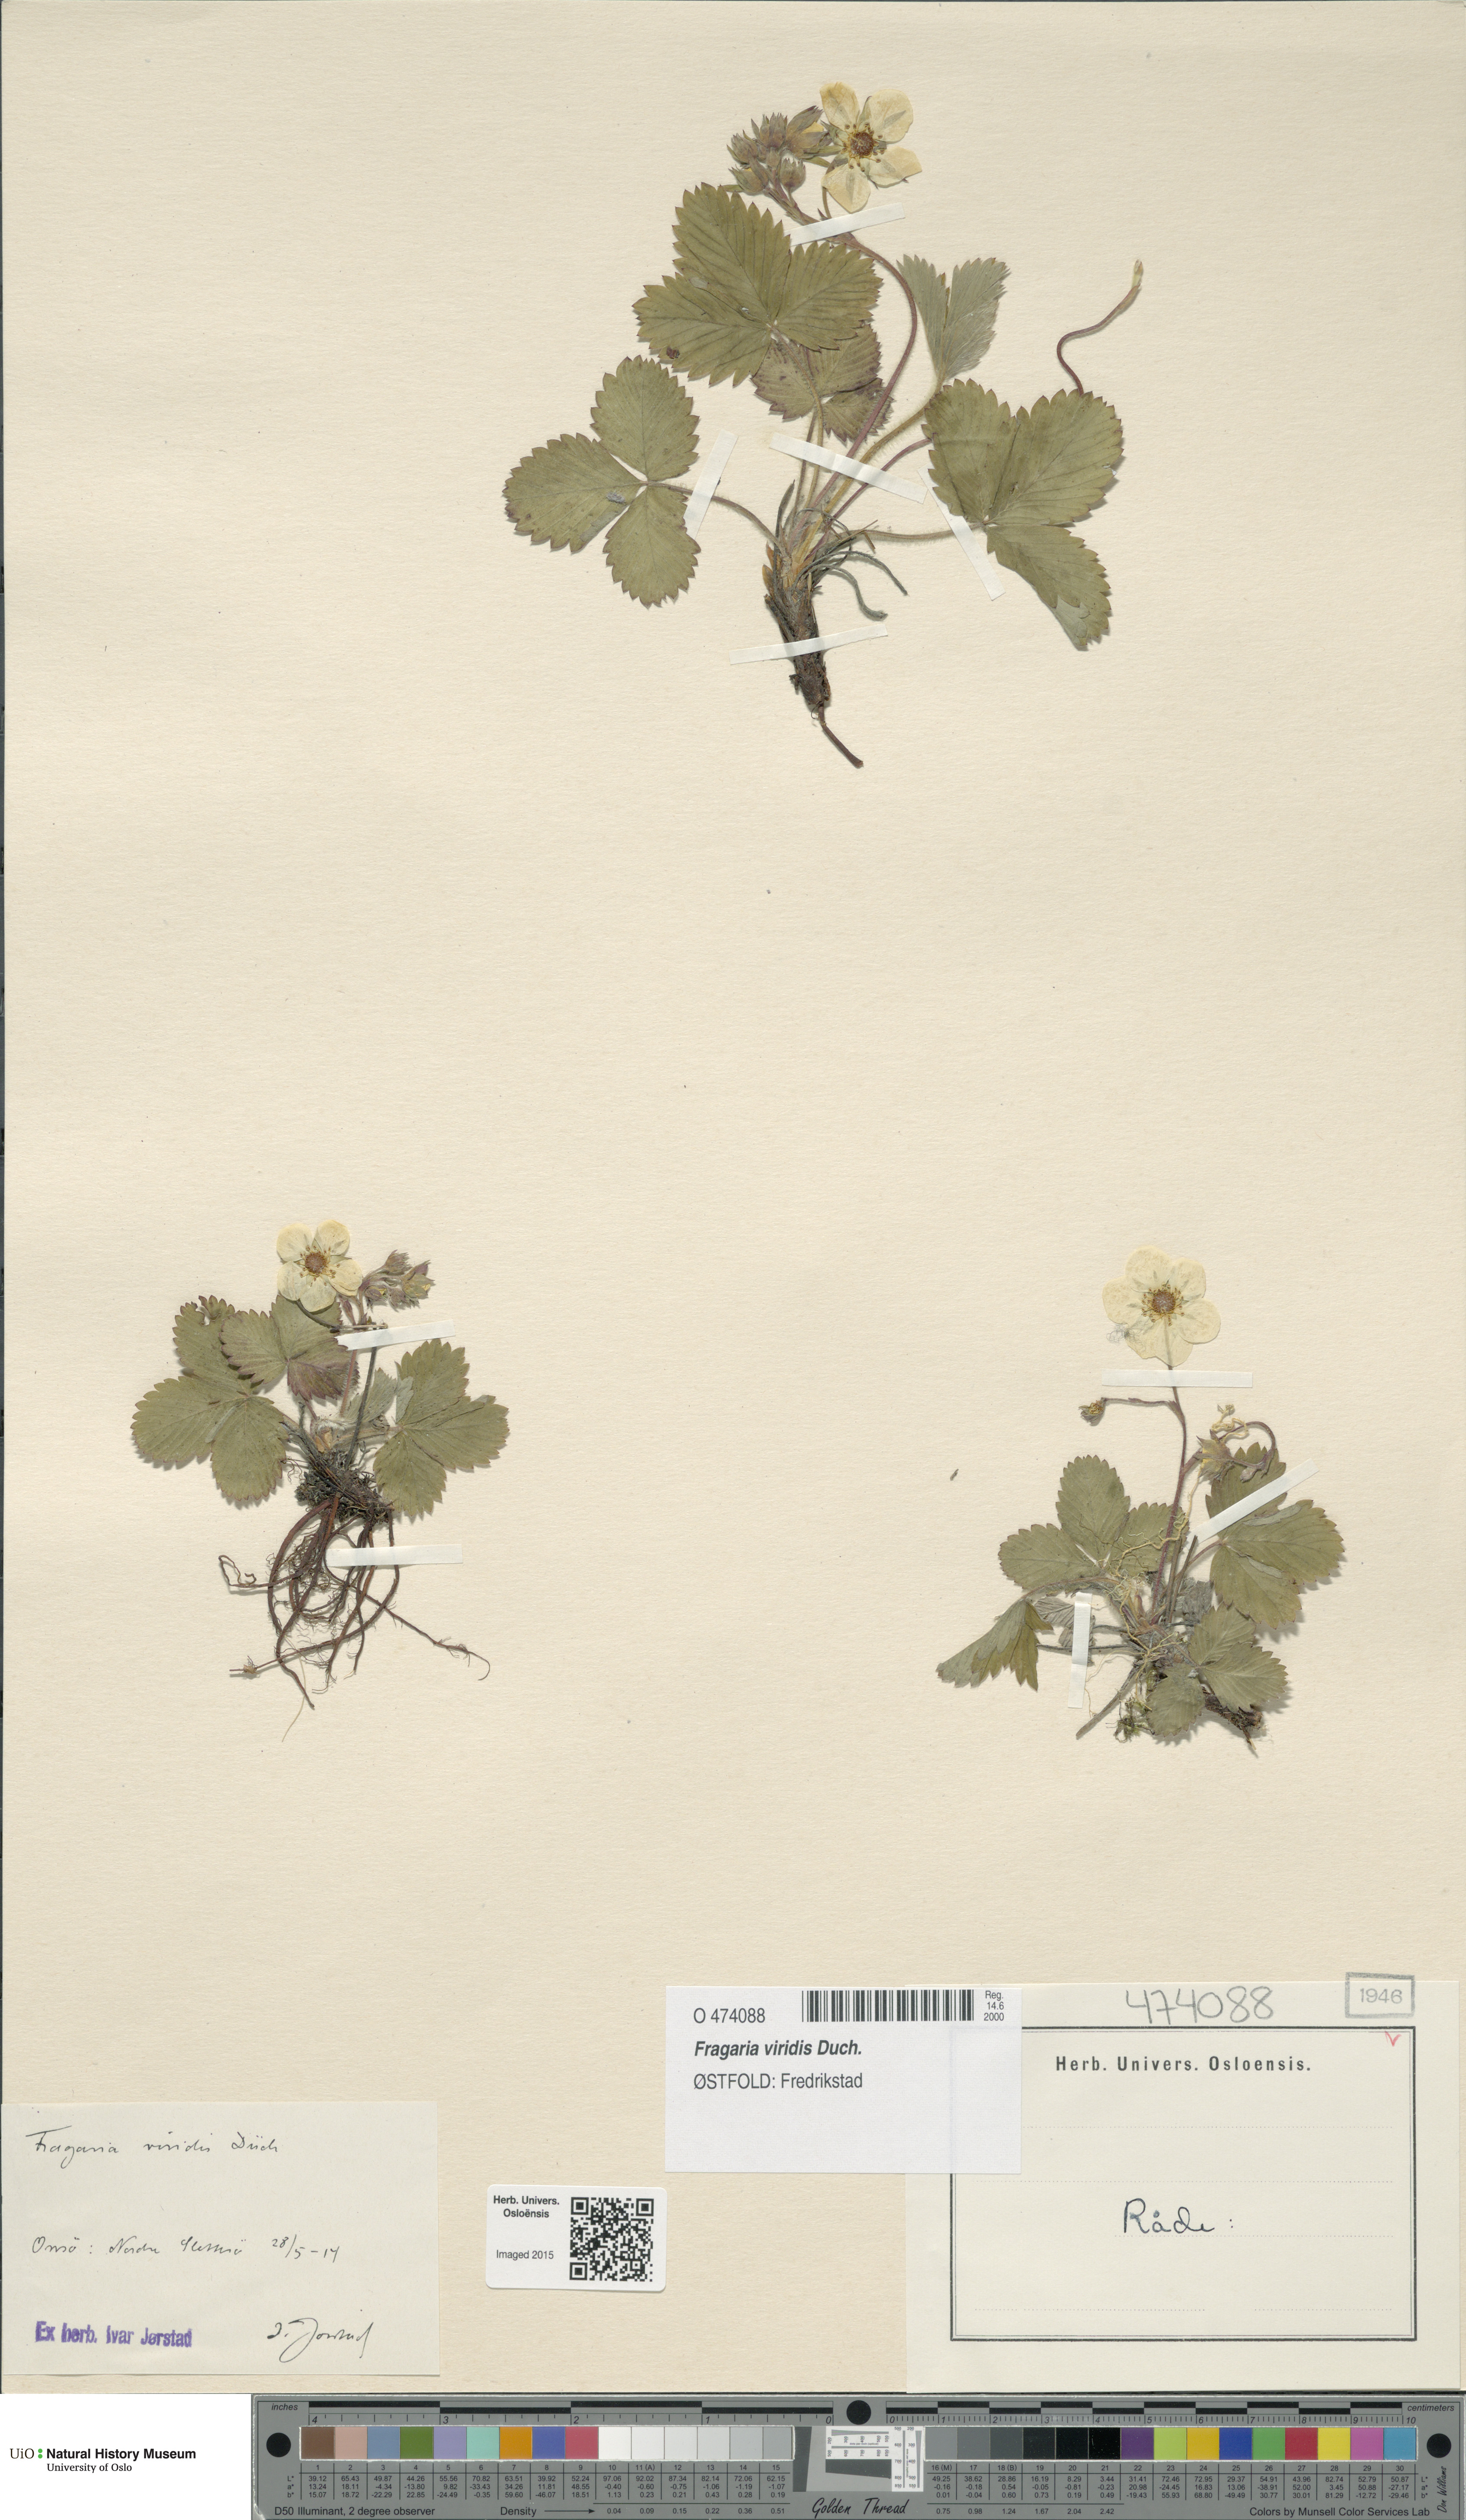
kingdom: Plantae
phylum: Tracheophyta
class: Magnoliopsida
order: Rosales
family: Rosaceae
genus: Fragaria
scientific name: Fragaria viridis
